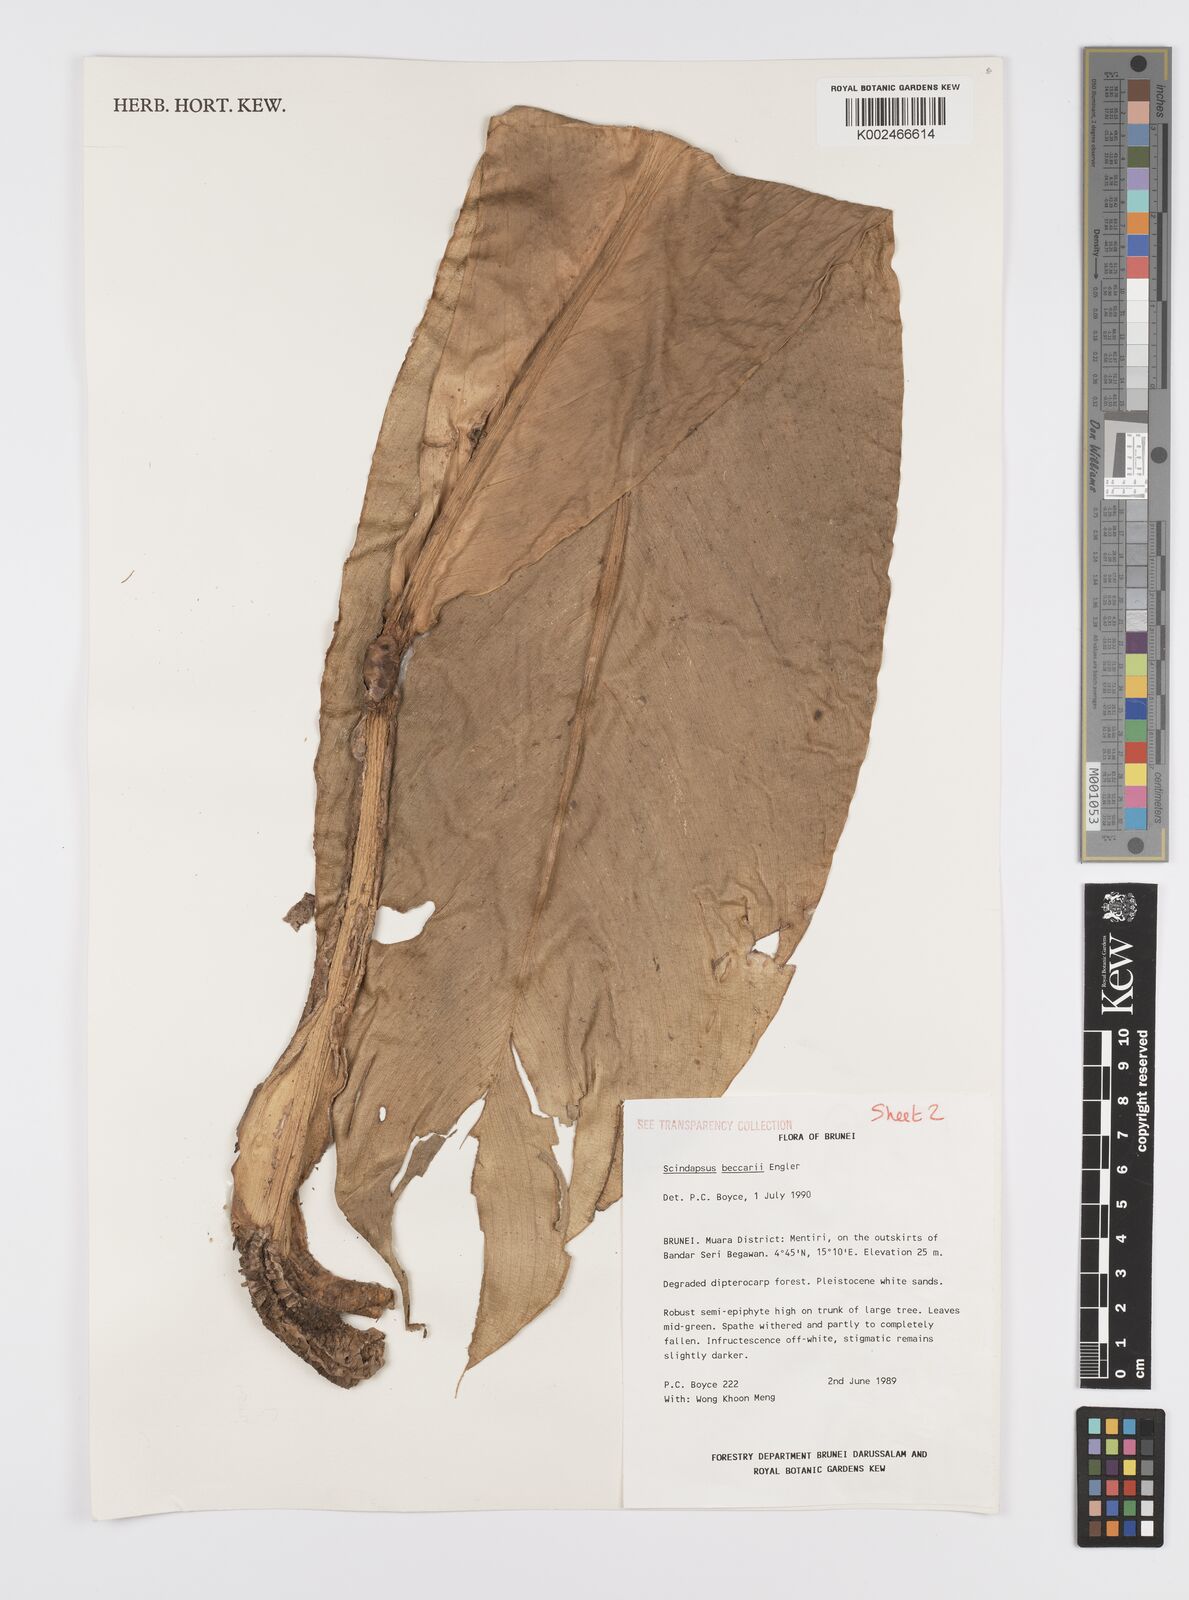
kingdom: Plantae
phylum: Tracheophyta
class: Liliopsida
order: Alismatales
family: Araceae
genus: Scindapsus
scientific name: Scindapsus crassipes
